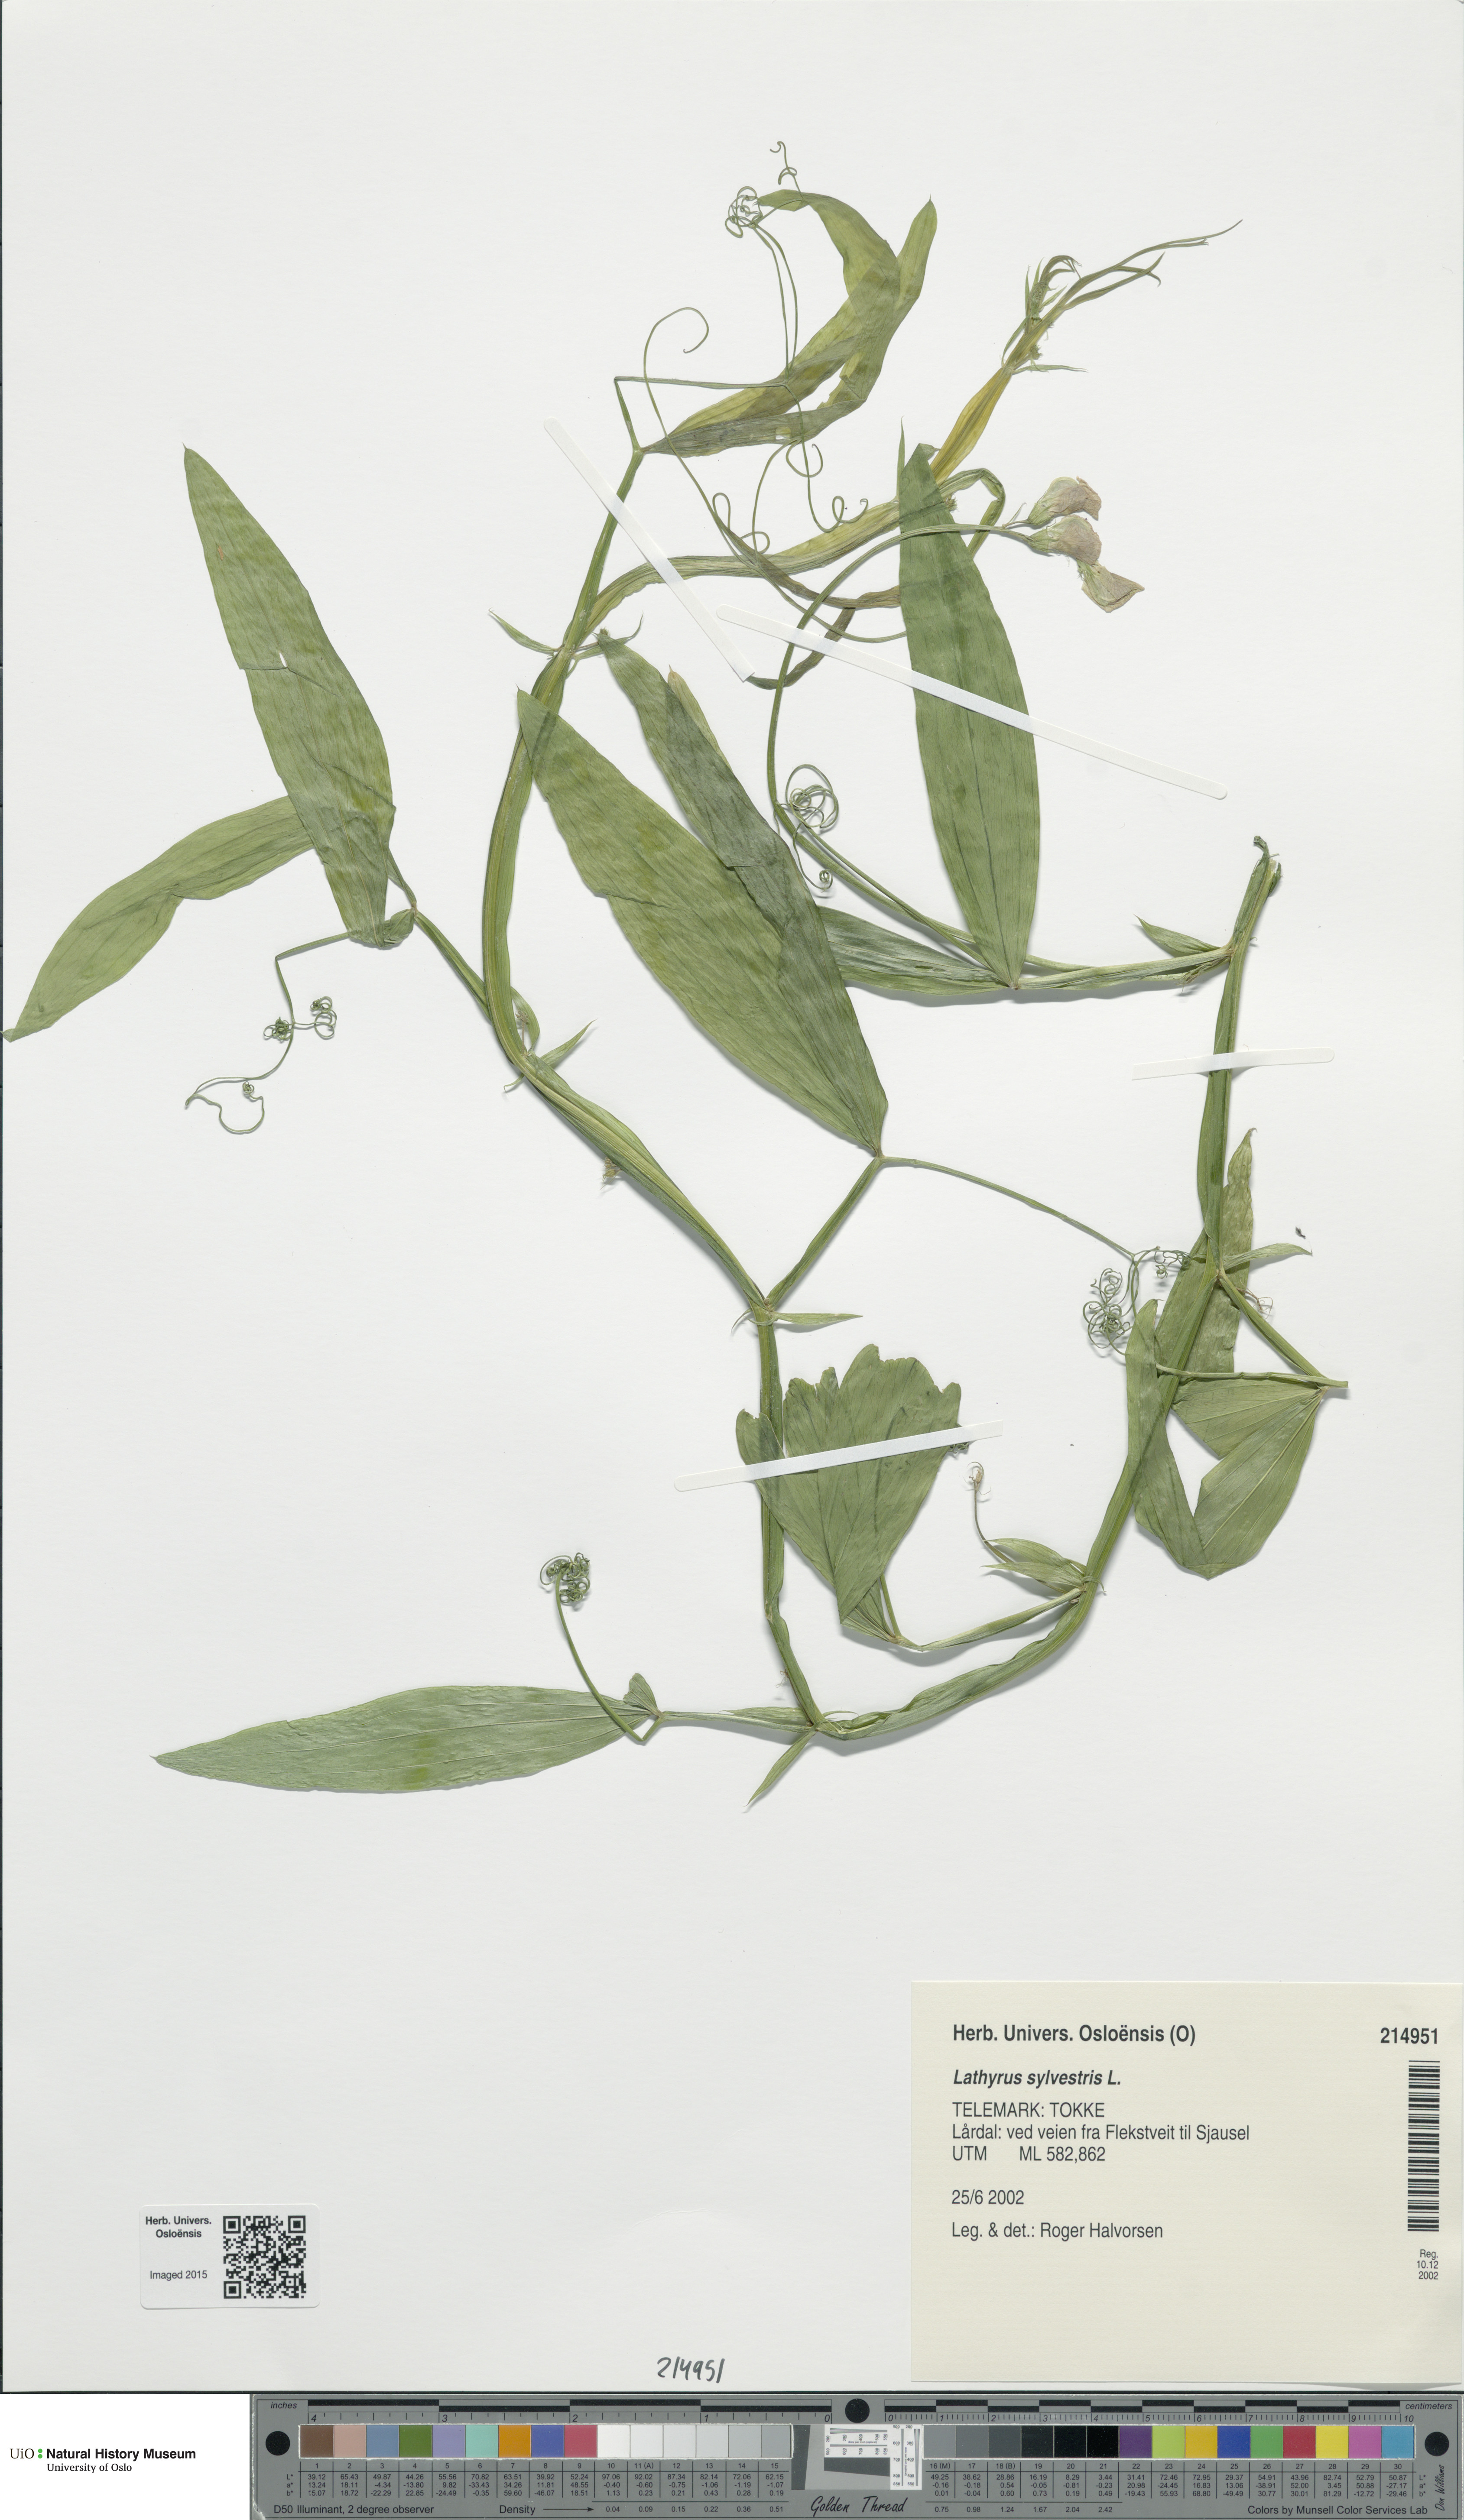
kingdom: Plantae
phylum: Tracheophyta
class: Magnoliopsida
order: Fabales
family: Fabaceae
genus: Lathyrus
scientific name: Lathyrus sylvestris
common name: Flat pea
